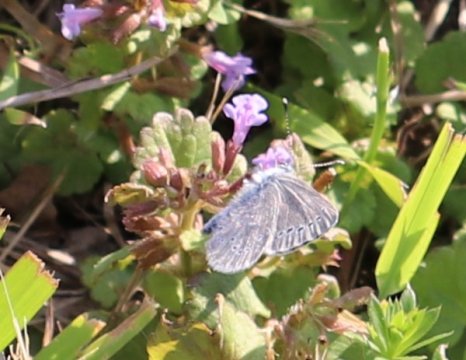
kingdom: Animalia
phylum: Arthropoda
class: Insecta
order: Lepidoptera
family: Lycaenidae
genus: Glaucopsyche
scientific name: Glaucopsyche lygdamus
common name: Silvery Blue
